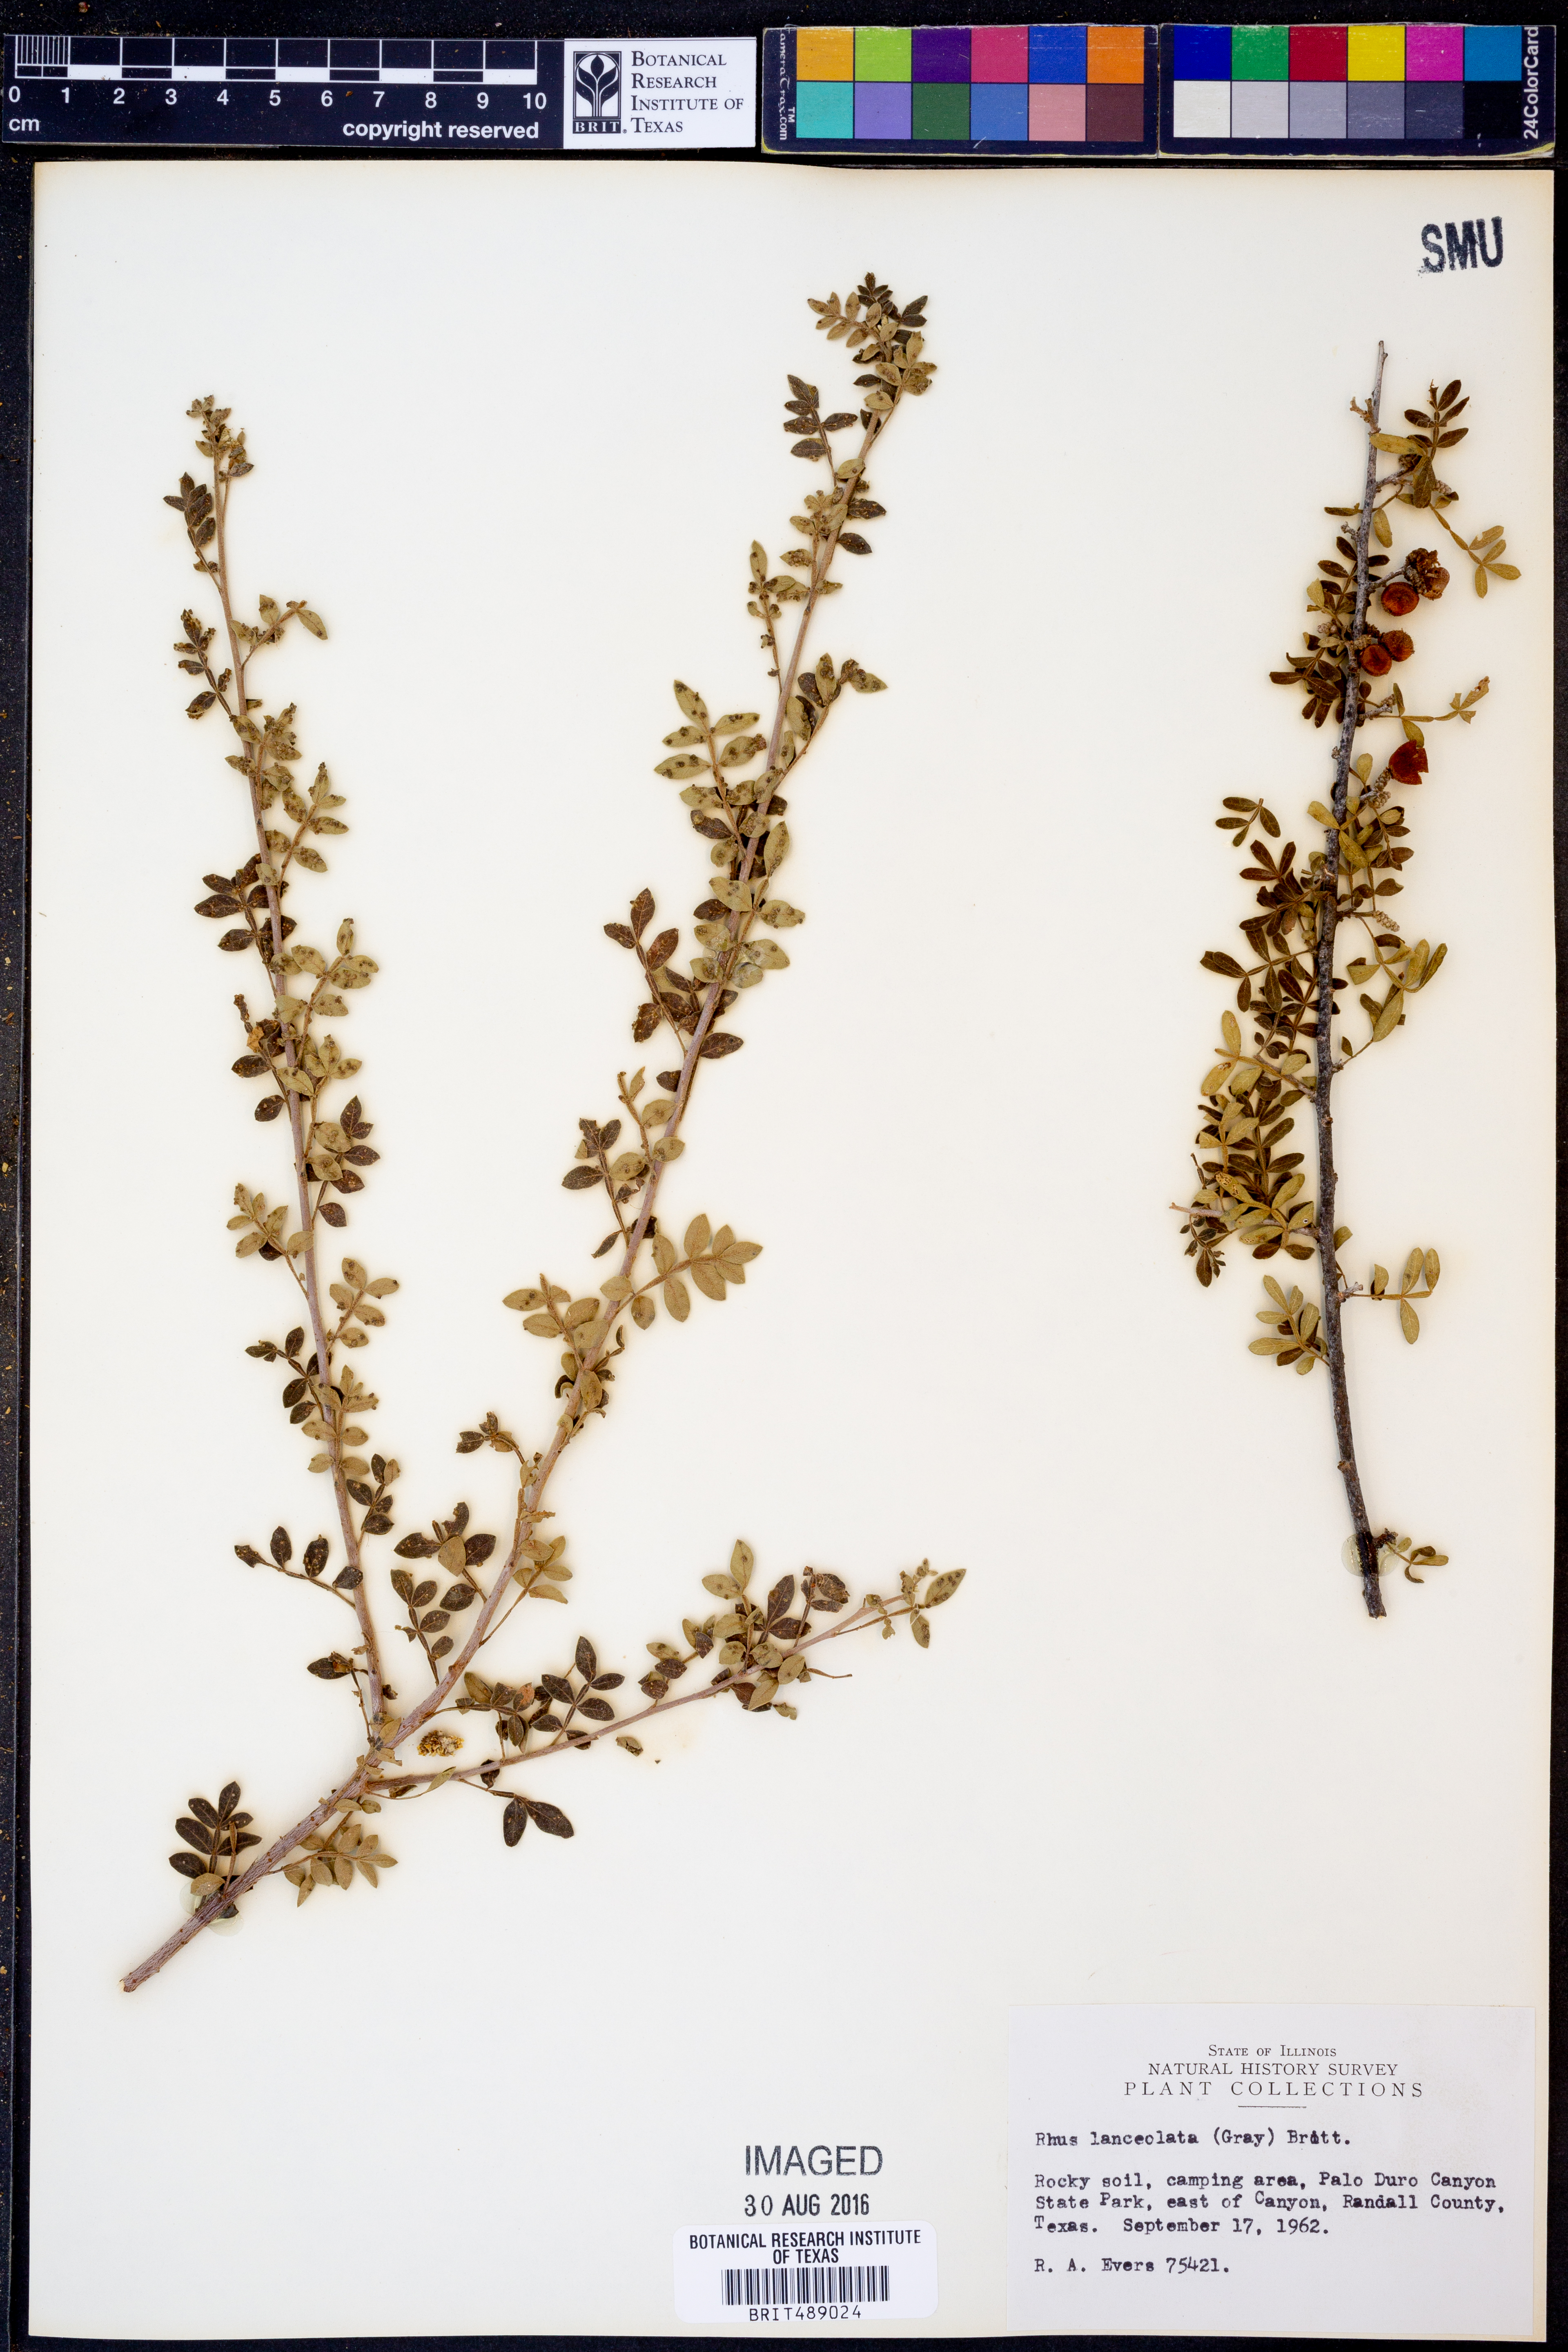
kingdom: Plantae
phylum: Tracheophyta
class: Magnoliopsida
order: Sapindales
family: Anacardiaceae
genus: Rhus
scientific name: Rhus lanceolata
